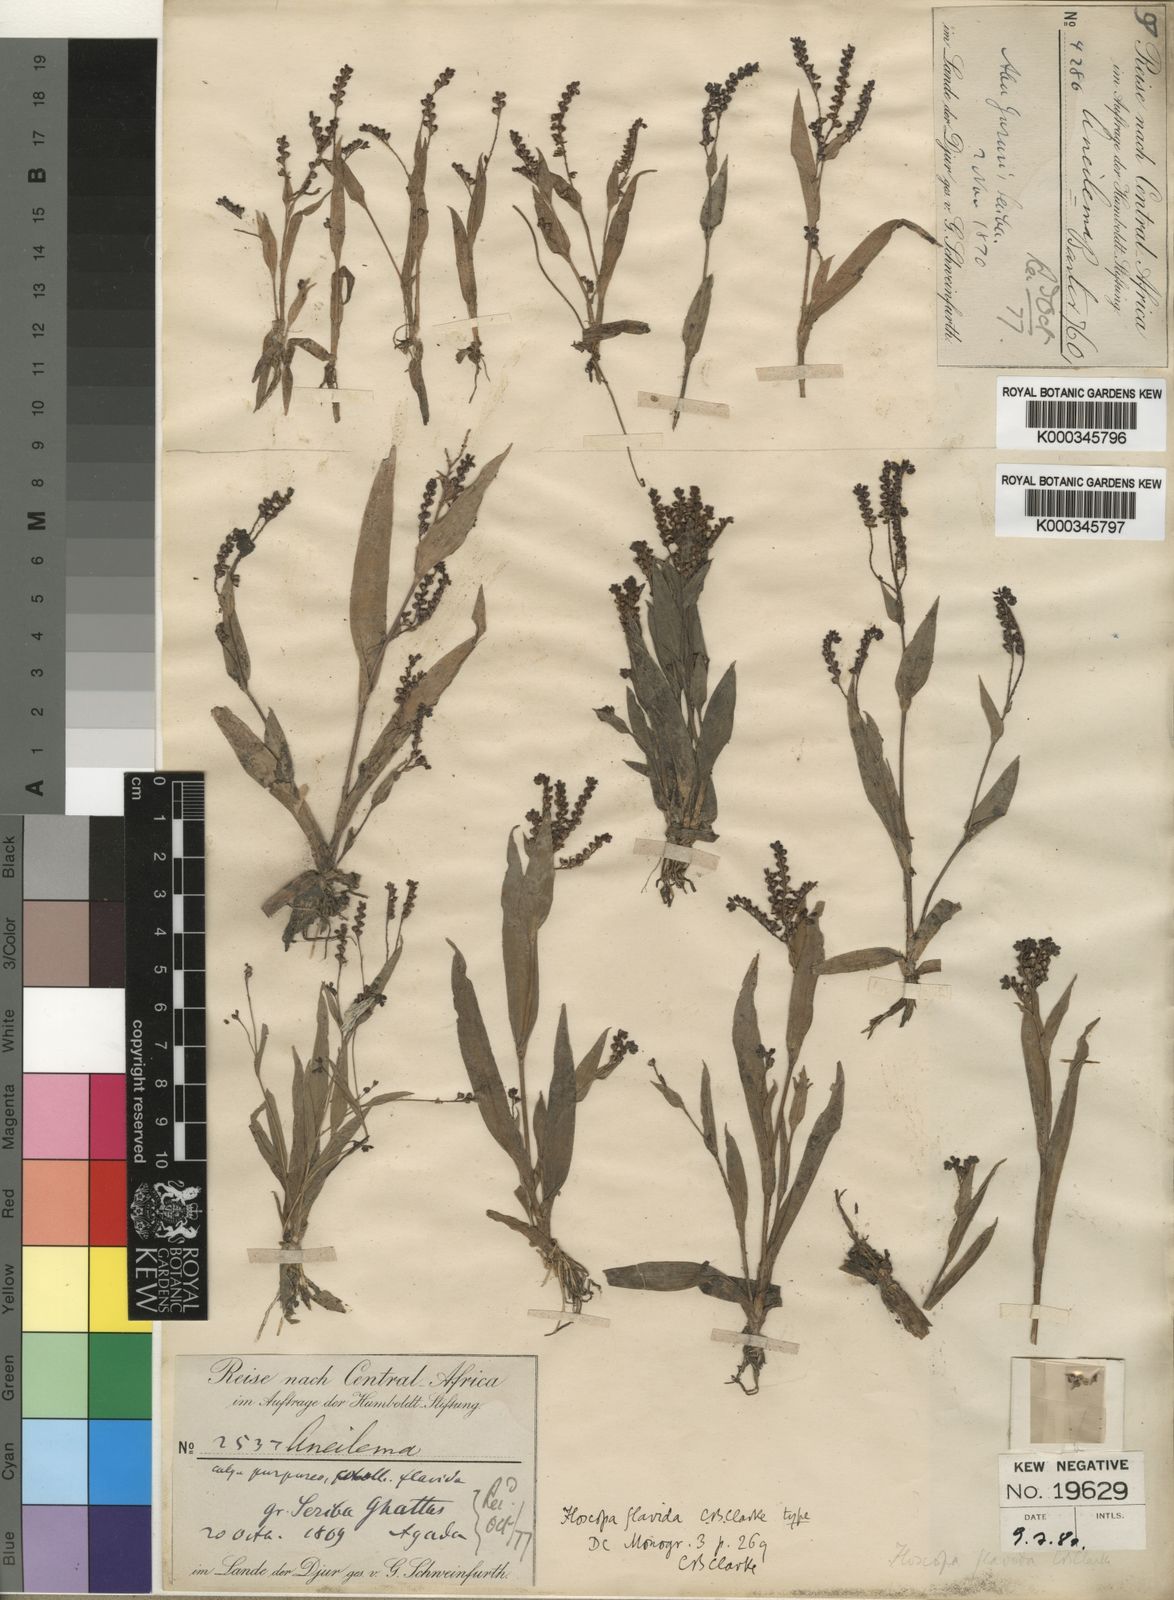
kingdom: Plantae
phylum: Tracheophyta
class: Liliopsida
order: Commelinales
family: Commelinaceae
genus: Floscopa
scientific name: Floscopa flavida
